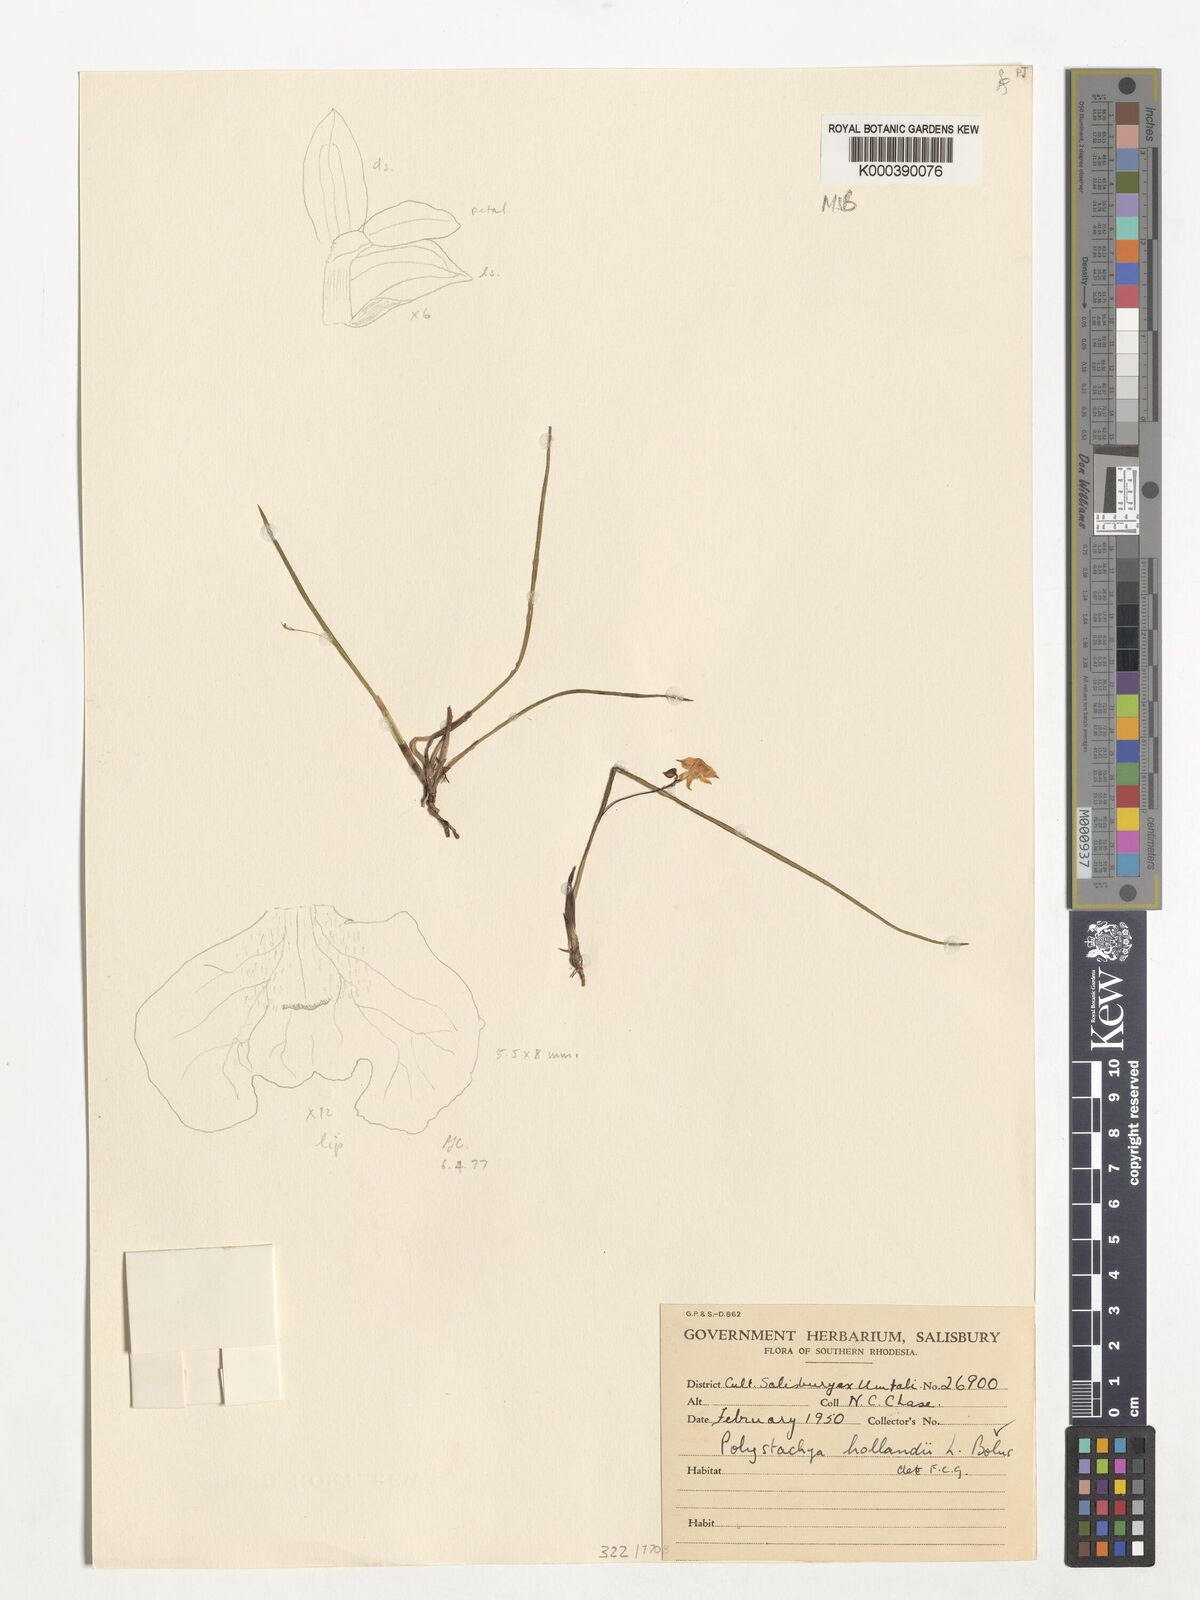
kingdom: Plantae
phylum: Tracheophyta
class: Liliopsida
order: Asparagales
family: Orchidaceae
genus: Polystachya
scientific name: Polystachya caespitifica
